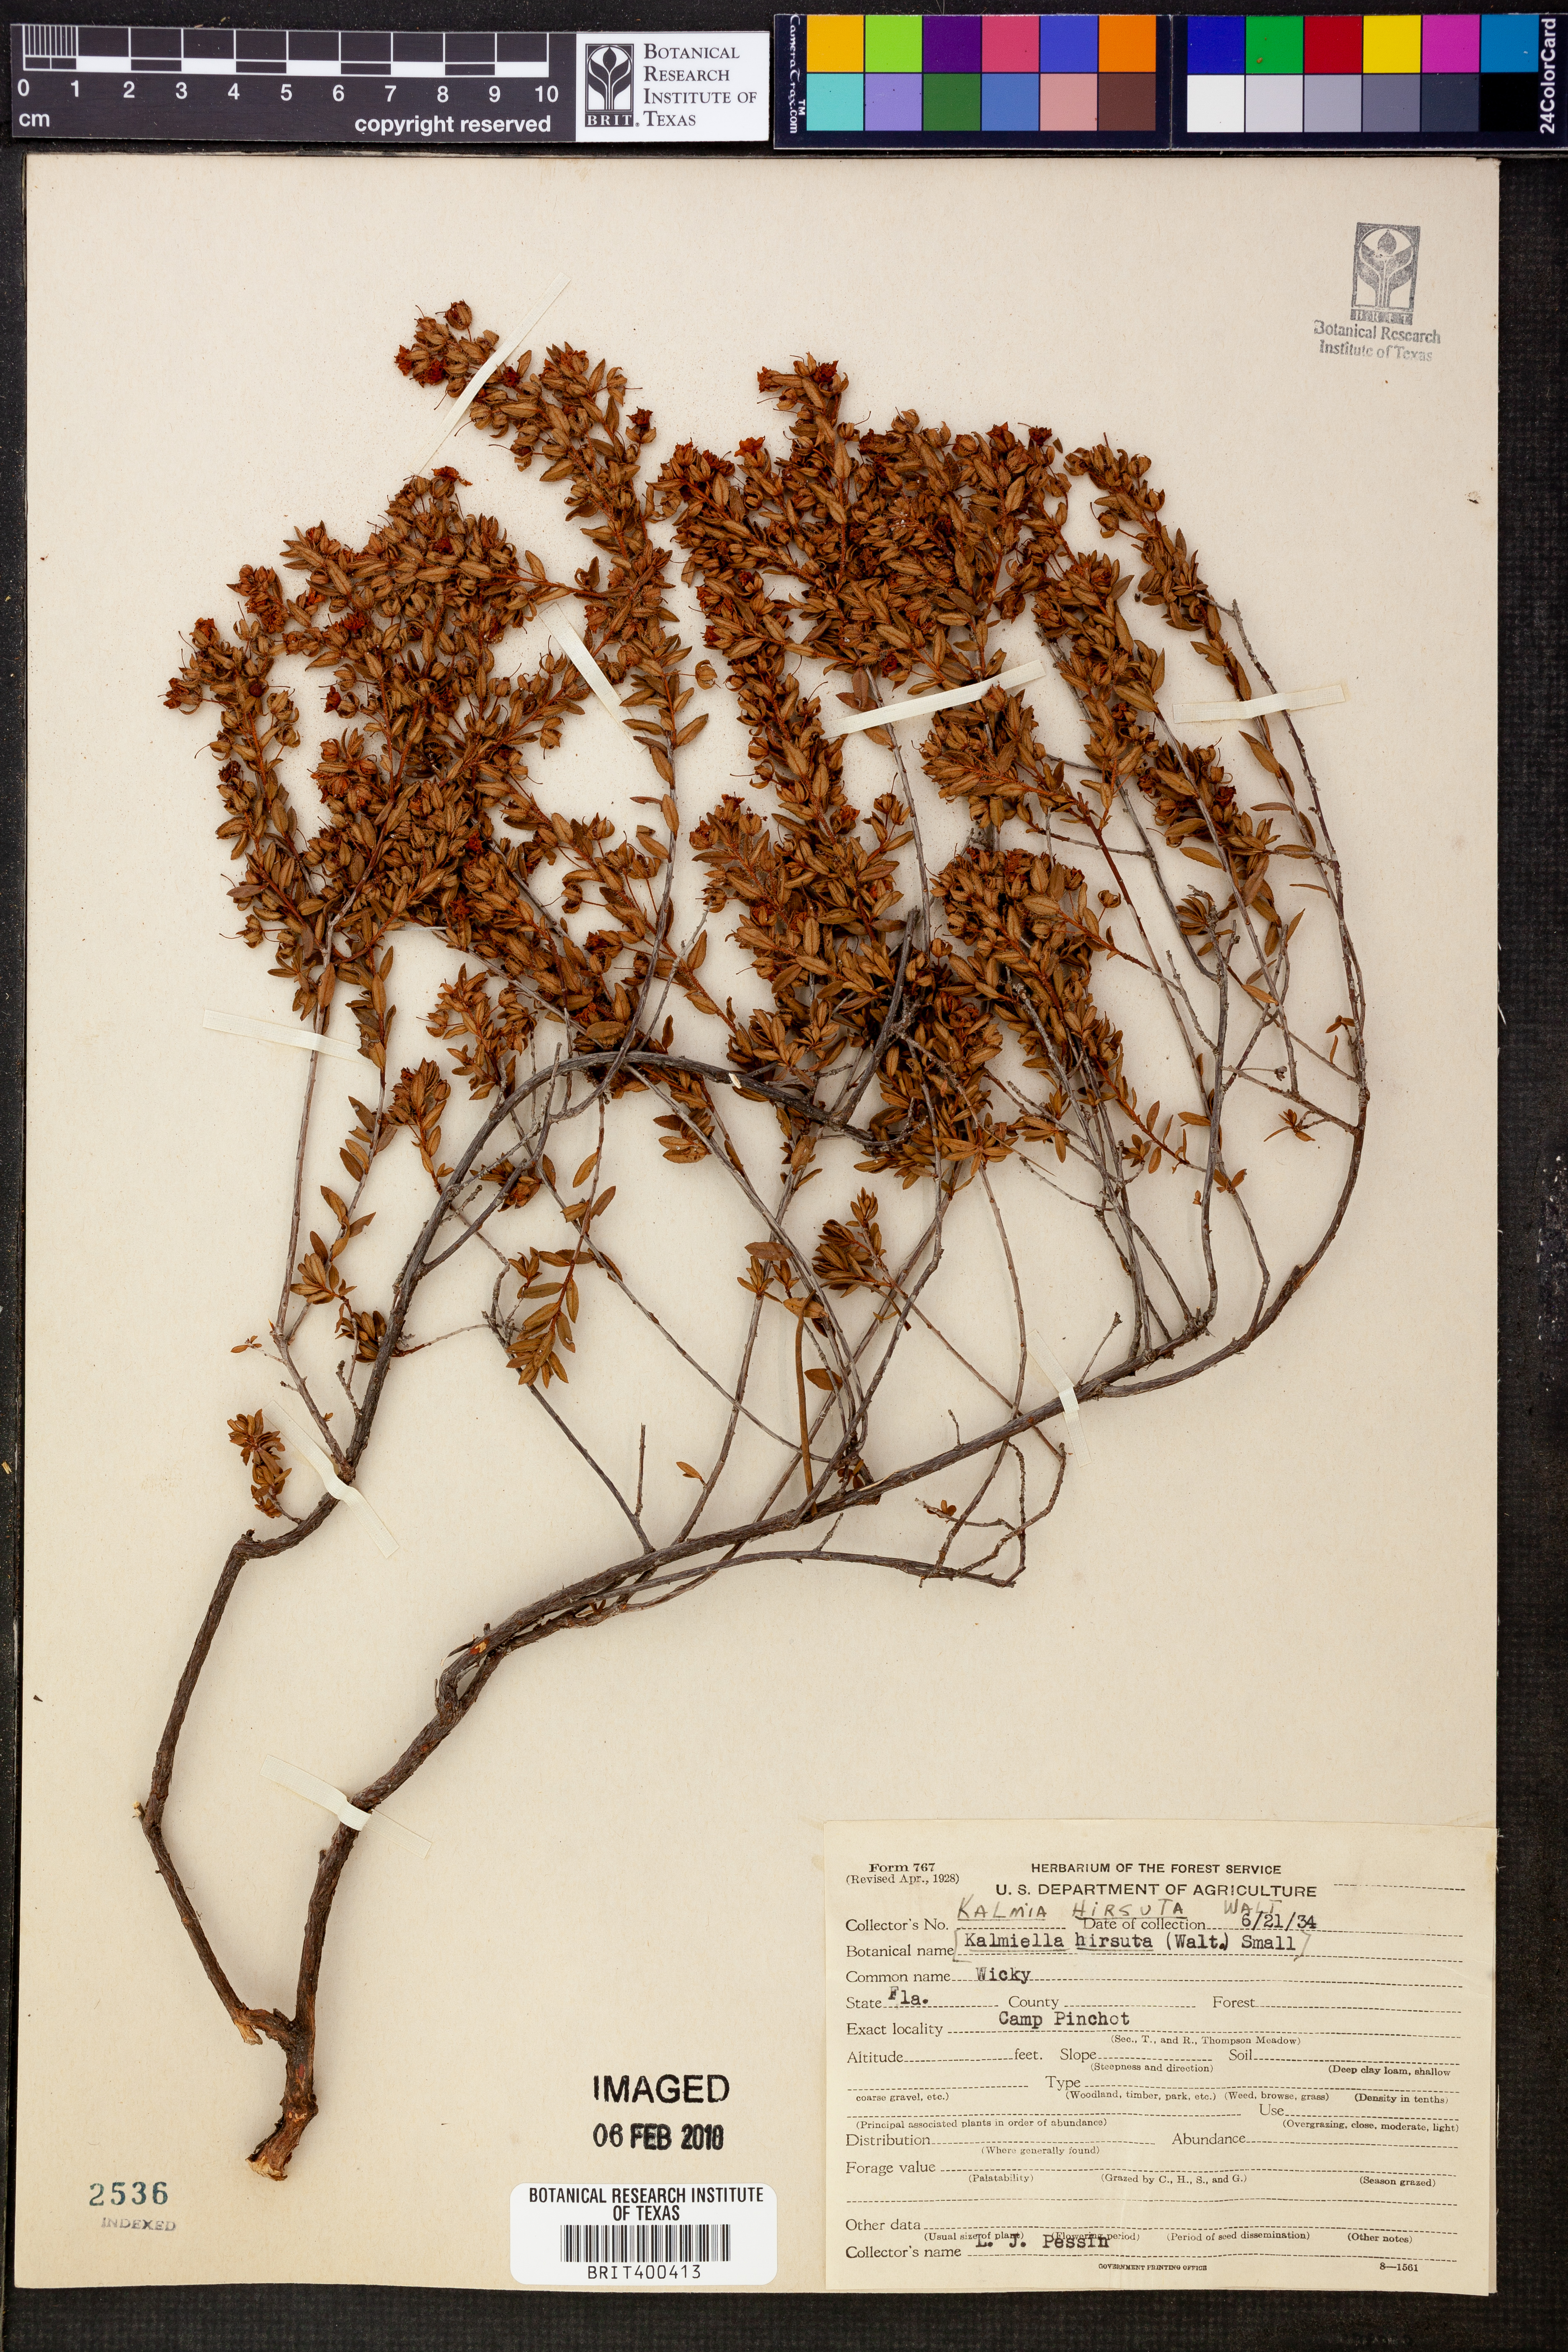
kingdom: Plantae
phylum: Tracheophyta
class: Magnoliopsida
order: Ericales
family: Ericaceae
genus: Kalmia
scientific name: Kalmia hirsuta
